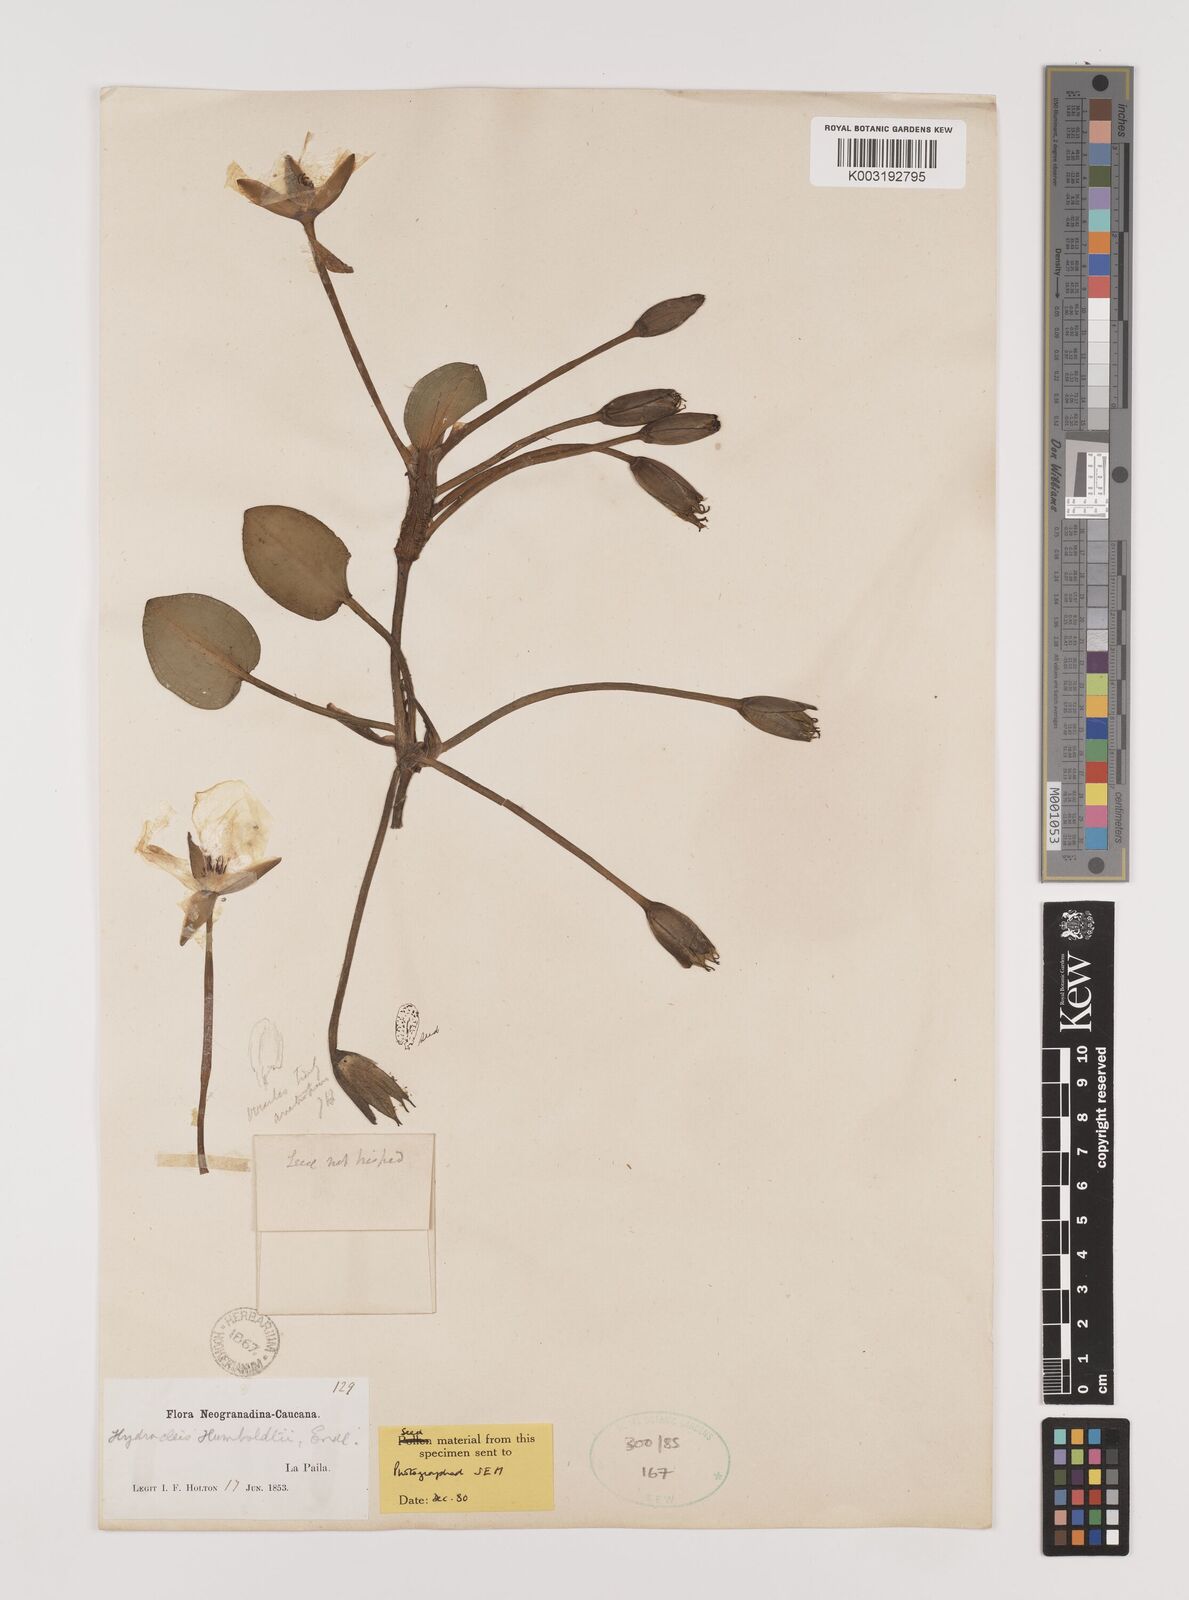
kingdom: Plantae
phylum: Tracheophyta
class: Liliopsida
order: Alismatales
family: Alismataceae
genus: Hydrocleys
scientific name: Hydrocleys nymphoides
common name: Water-poppy
